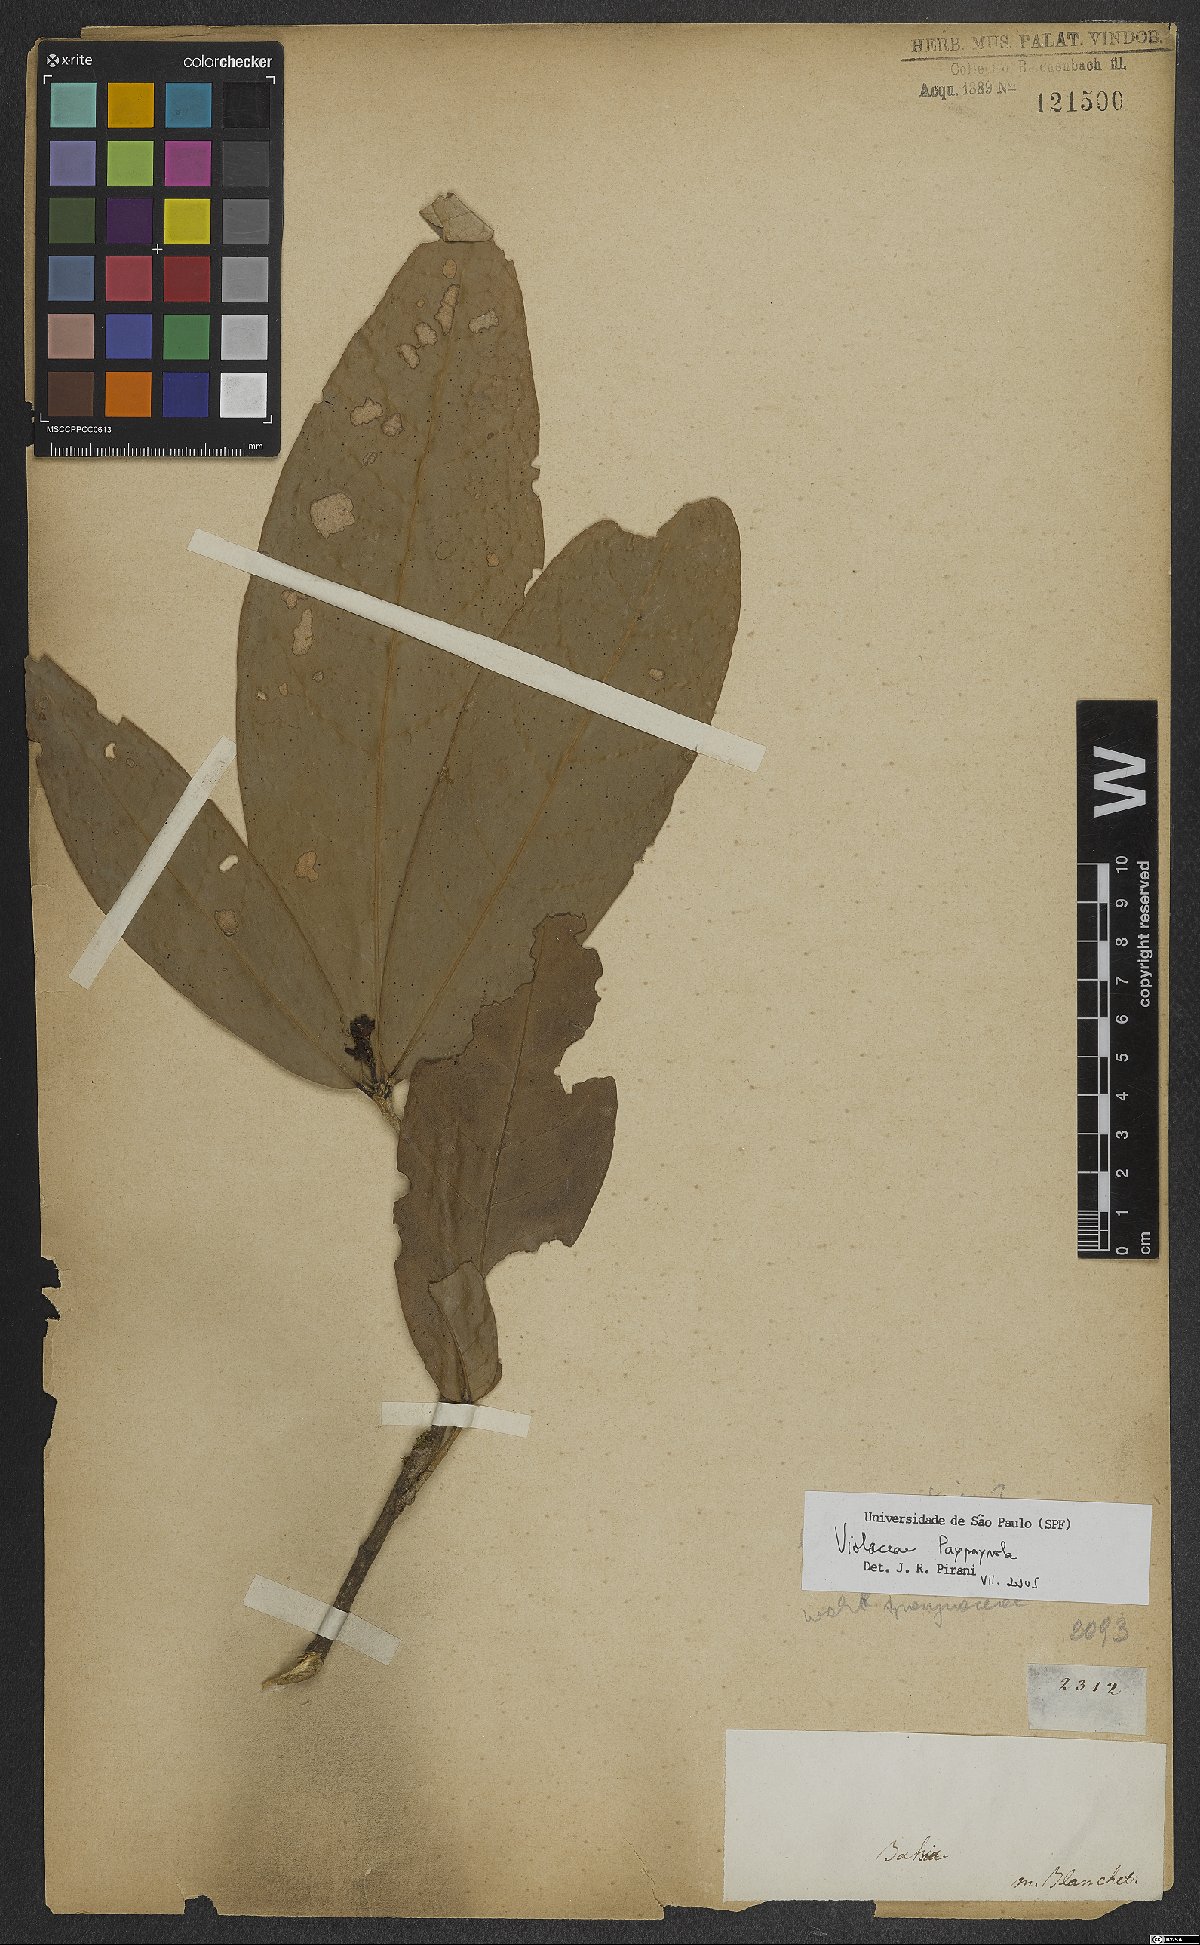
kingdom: Plantae
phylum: Tracheophyta
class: Magnoliopsida
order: Malpighiales
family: Violaceae
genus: Paypayrola
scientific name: Paypayrola
